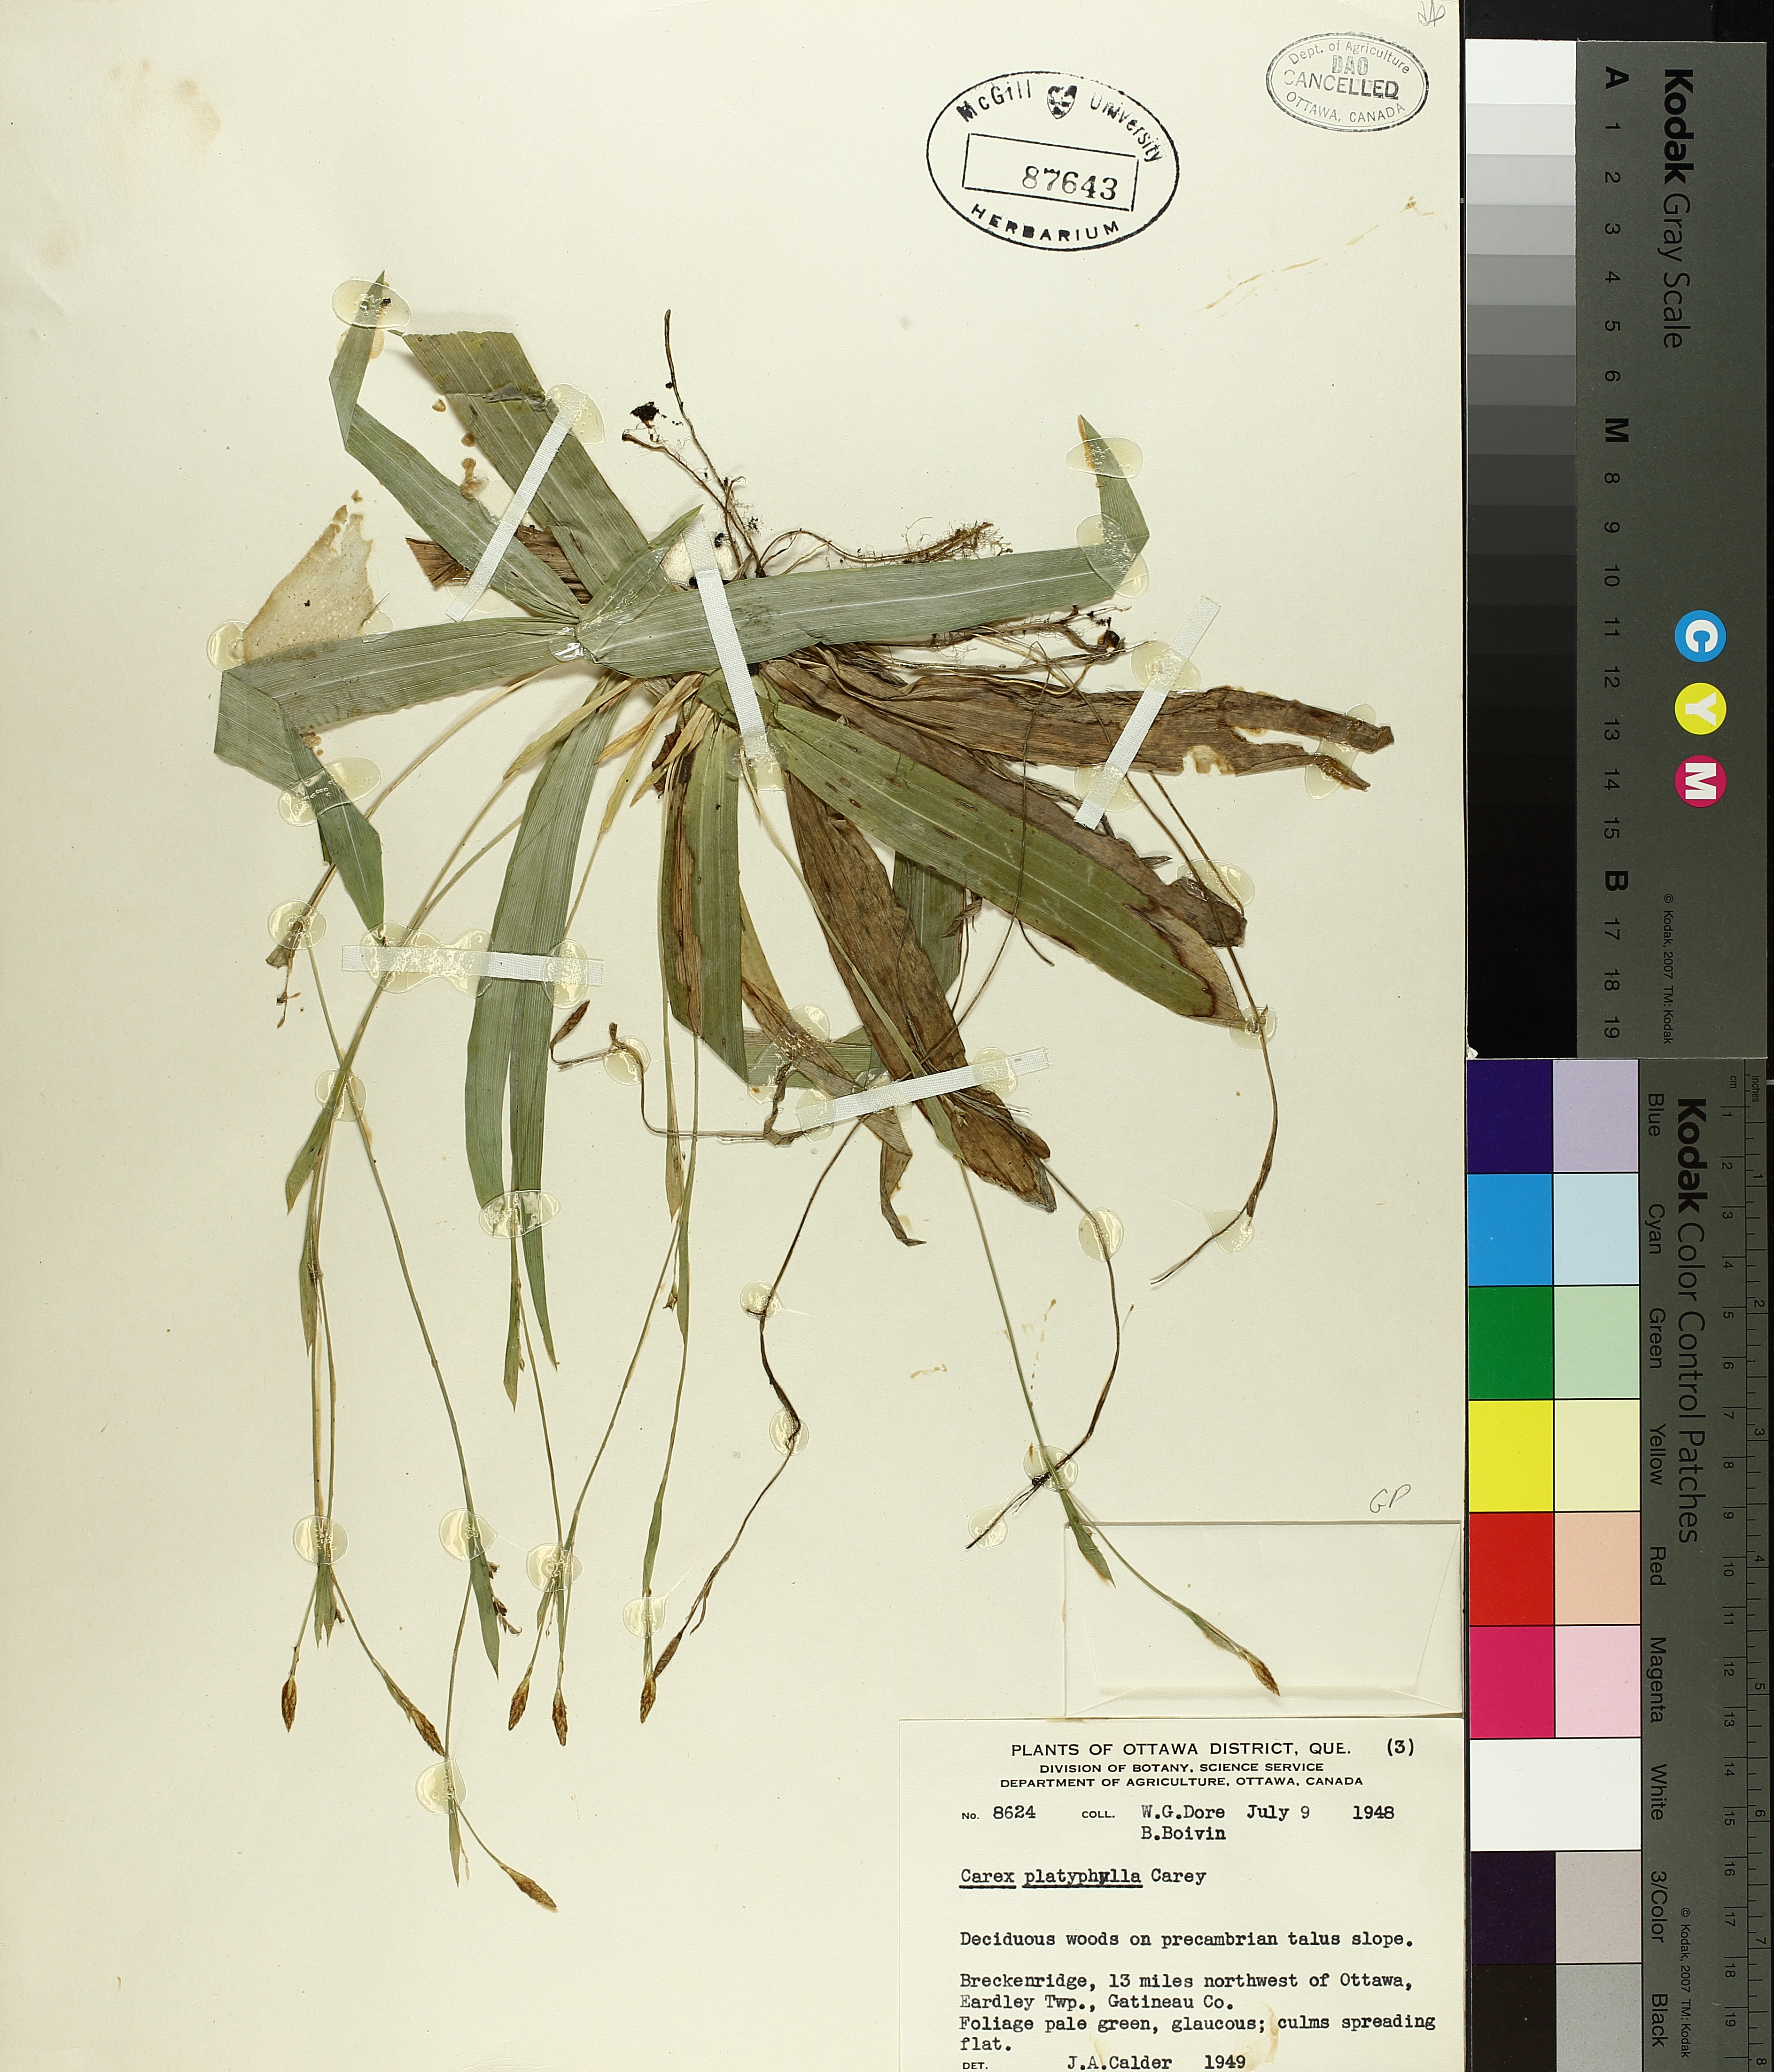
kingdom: Plantae
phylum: Tracheophyta
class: Liliopsida
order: Poales
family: Cyperaceae
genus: Carex
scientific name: Carex platyphylla
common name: Broad-leaved sedge
